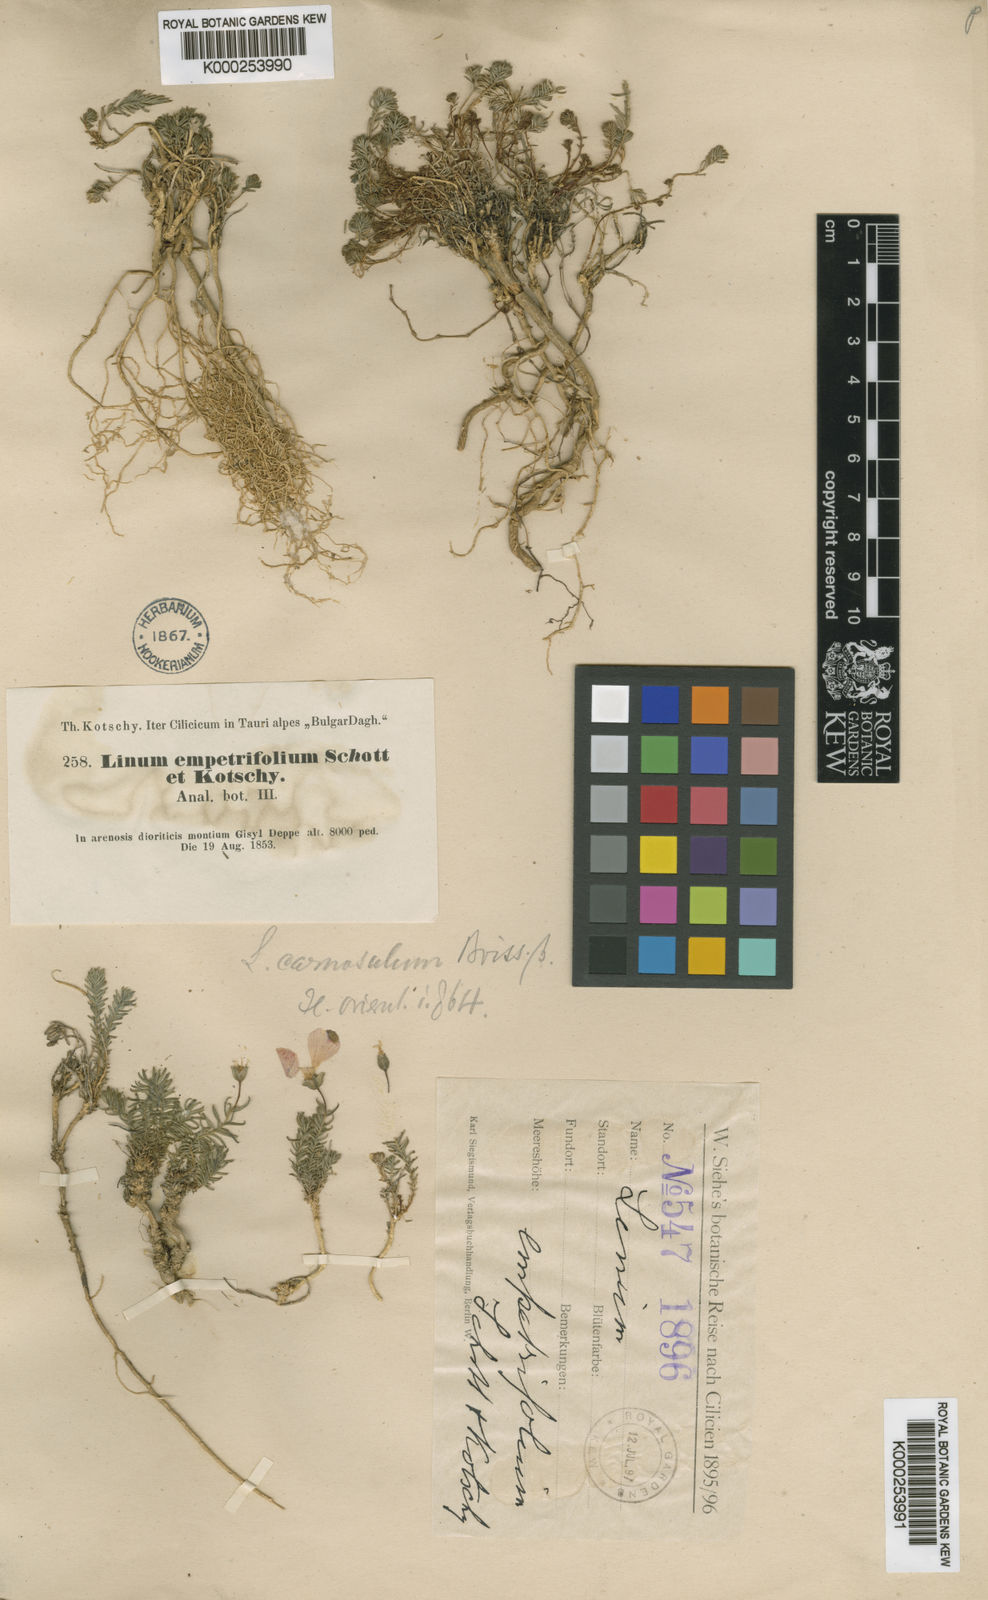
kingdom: Plantae
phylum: Tracheophyta
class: Magnoliopsida
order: Malpighiales
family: Linaceae
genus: Linum
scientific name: Linum carnosulum
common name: Fleshy flax
